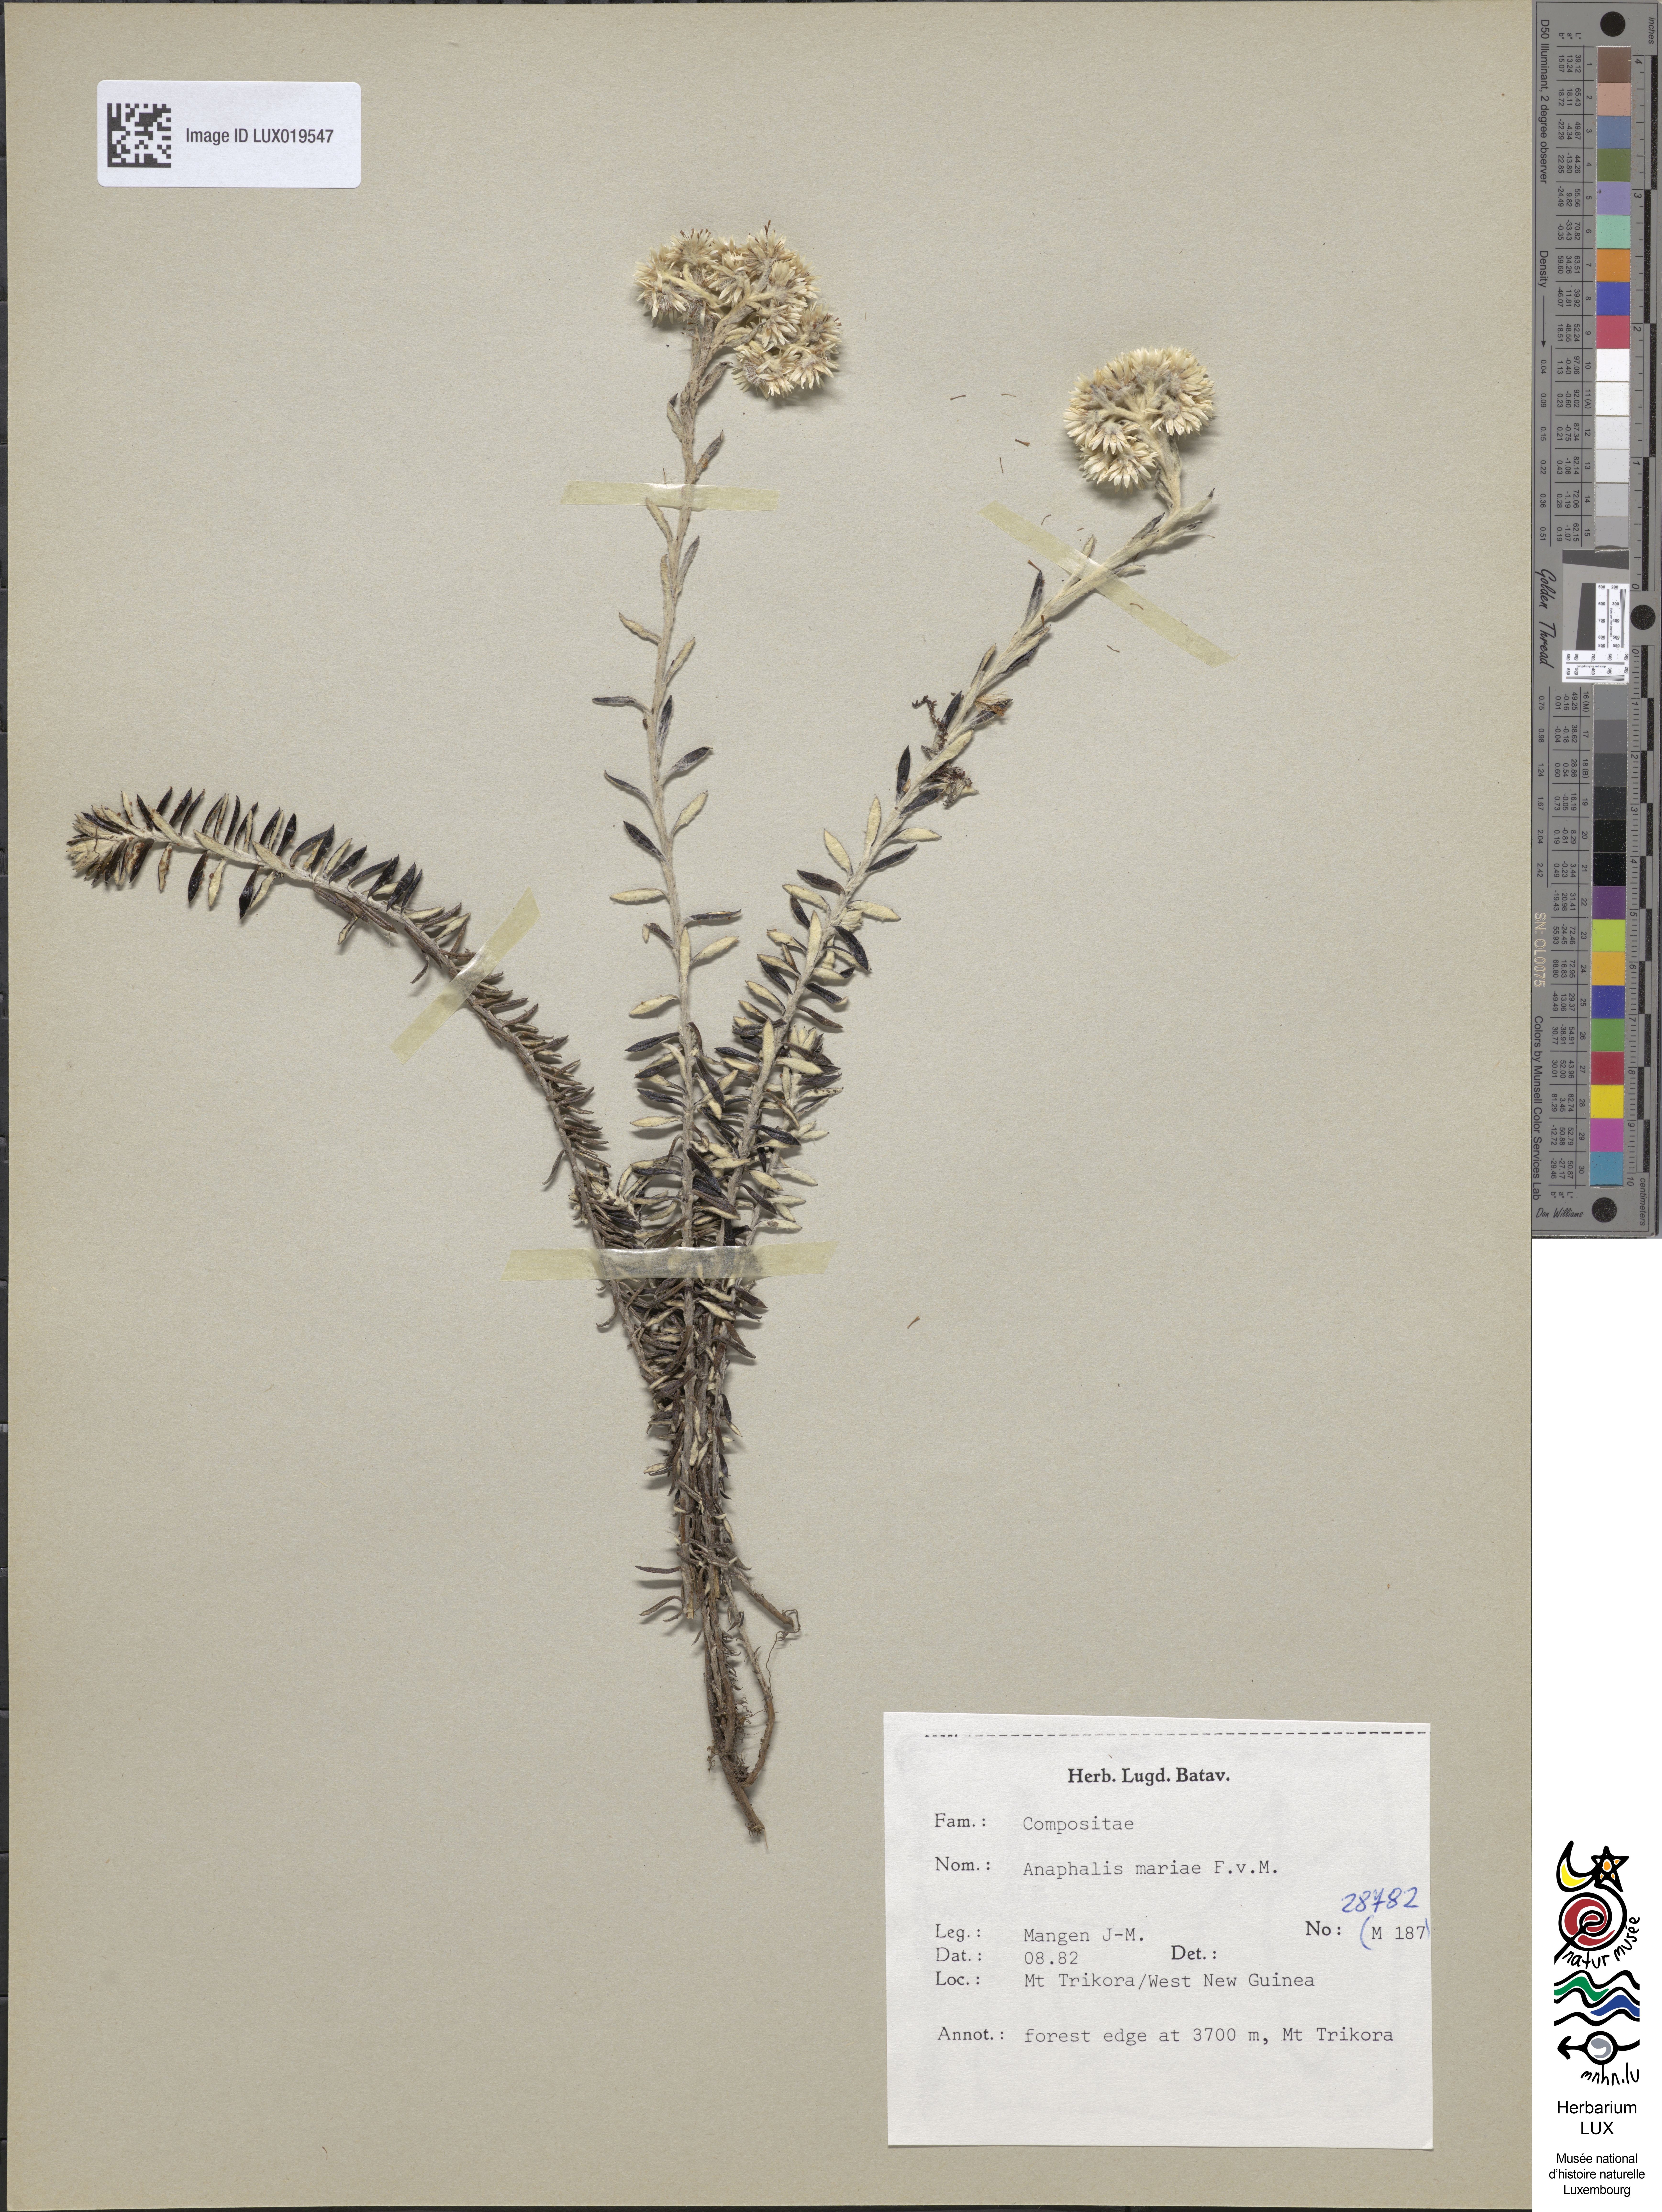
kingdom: Plantae
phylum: Tracheophyta
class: Magnoliopsida
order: Asterales
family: Asteraceae
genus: Anaphalioides
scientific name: Anaphalioides mariae
